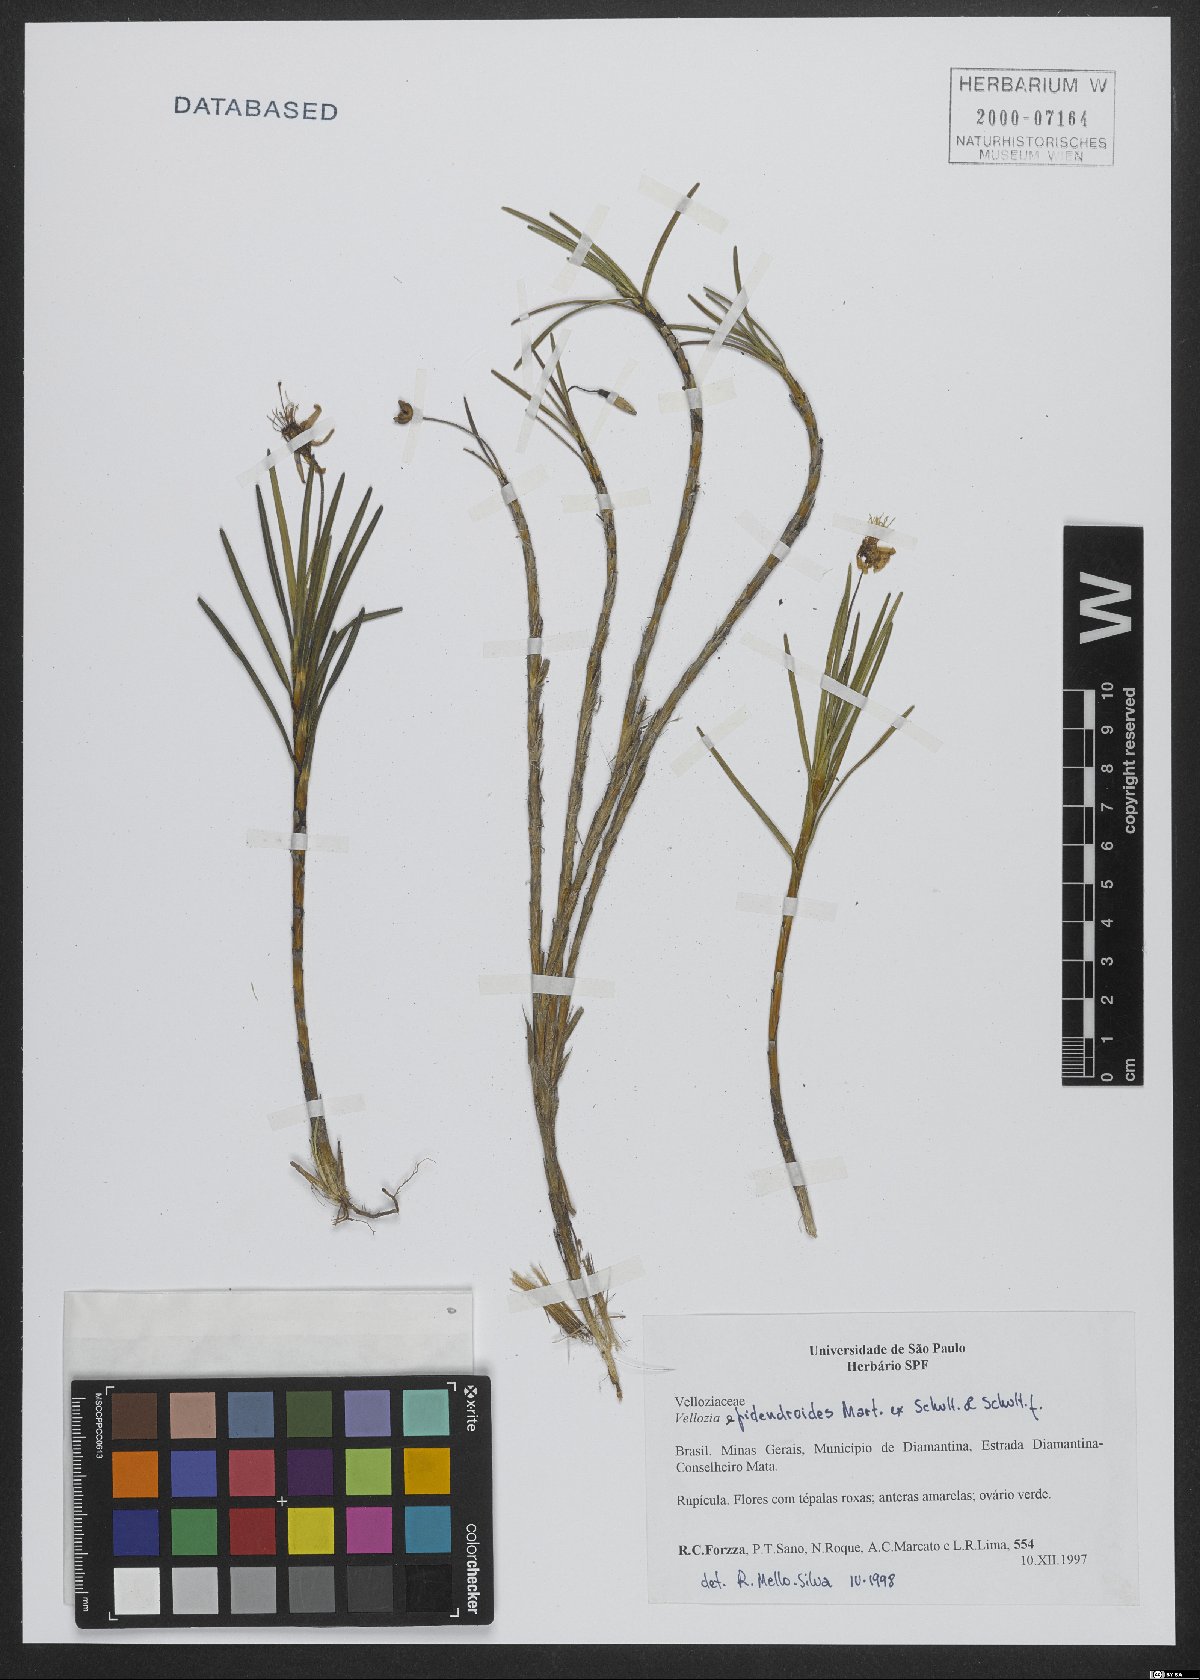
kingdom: Plantae
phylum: Tracheophyta
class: Liliopsida
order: Pandanales
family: Velloziaceae
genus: Vellozia
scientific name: Vellozia epidendroides
